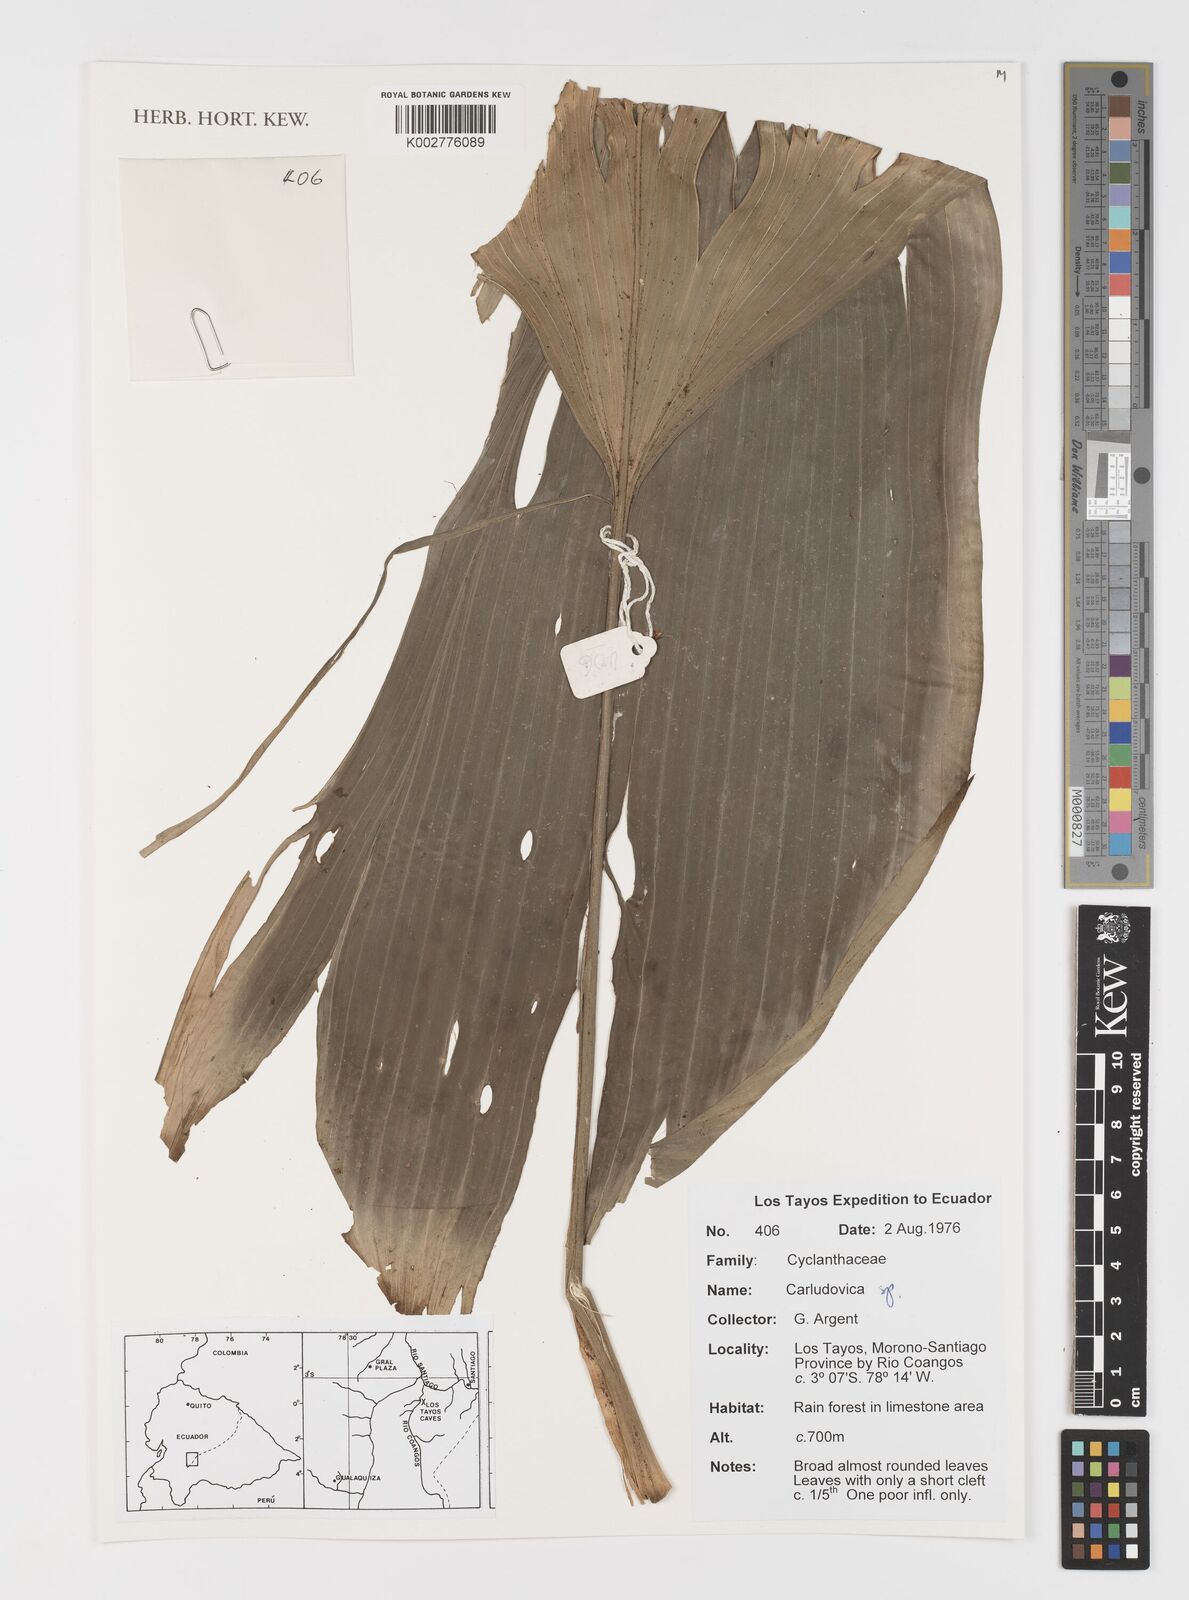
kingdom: Plantae
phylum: Tracheophyta
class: Liliopsida
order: Pandanales
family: Cyclanthaceae
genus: Carludovica
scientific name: Carludovica
